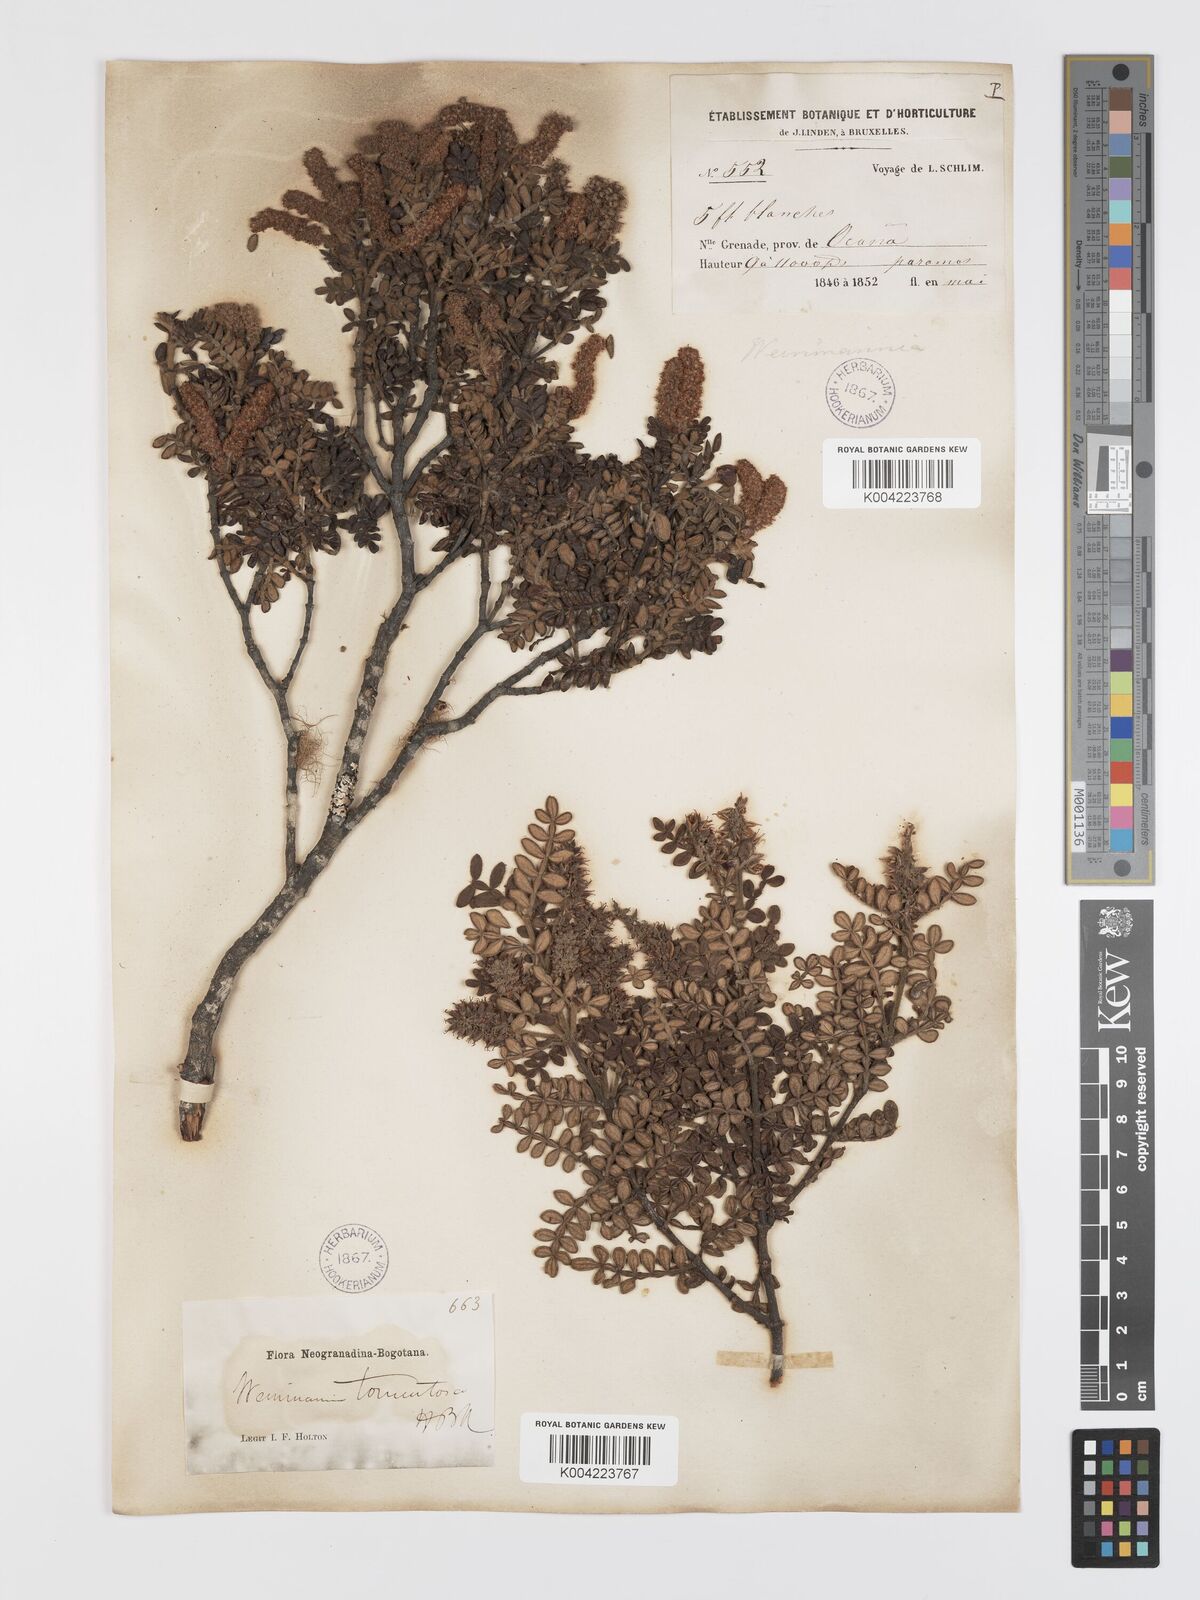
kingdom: Plantae
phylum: Tracheophyta
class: Magnoliopsida
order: Oxalidales
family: Cunoniaceae
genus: Weinmannia
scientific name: Weinmannia tomentosa
